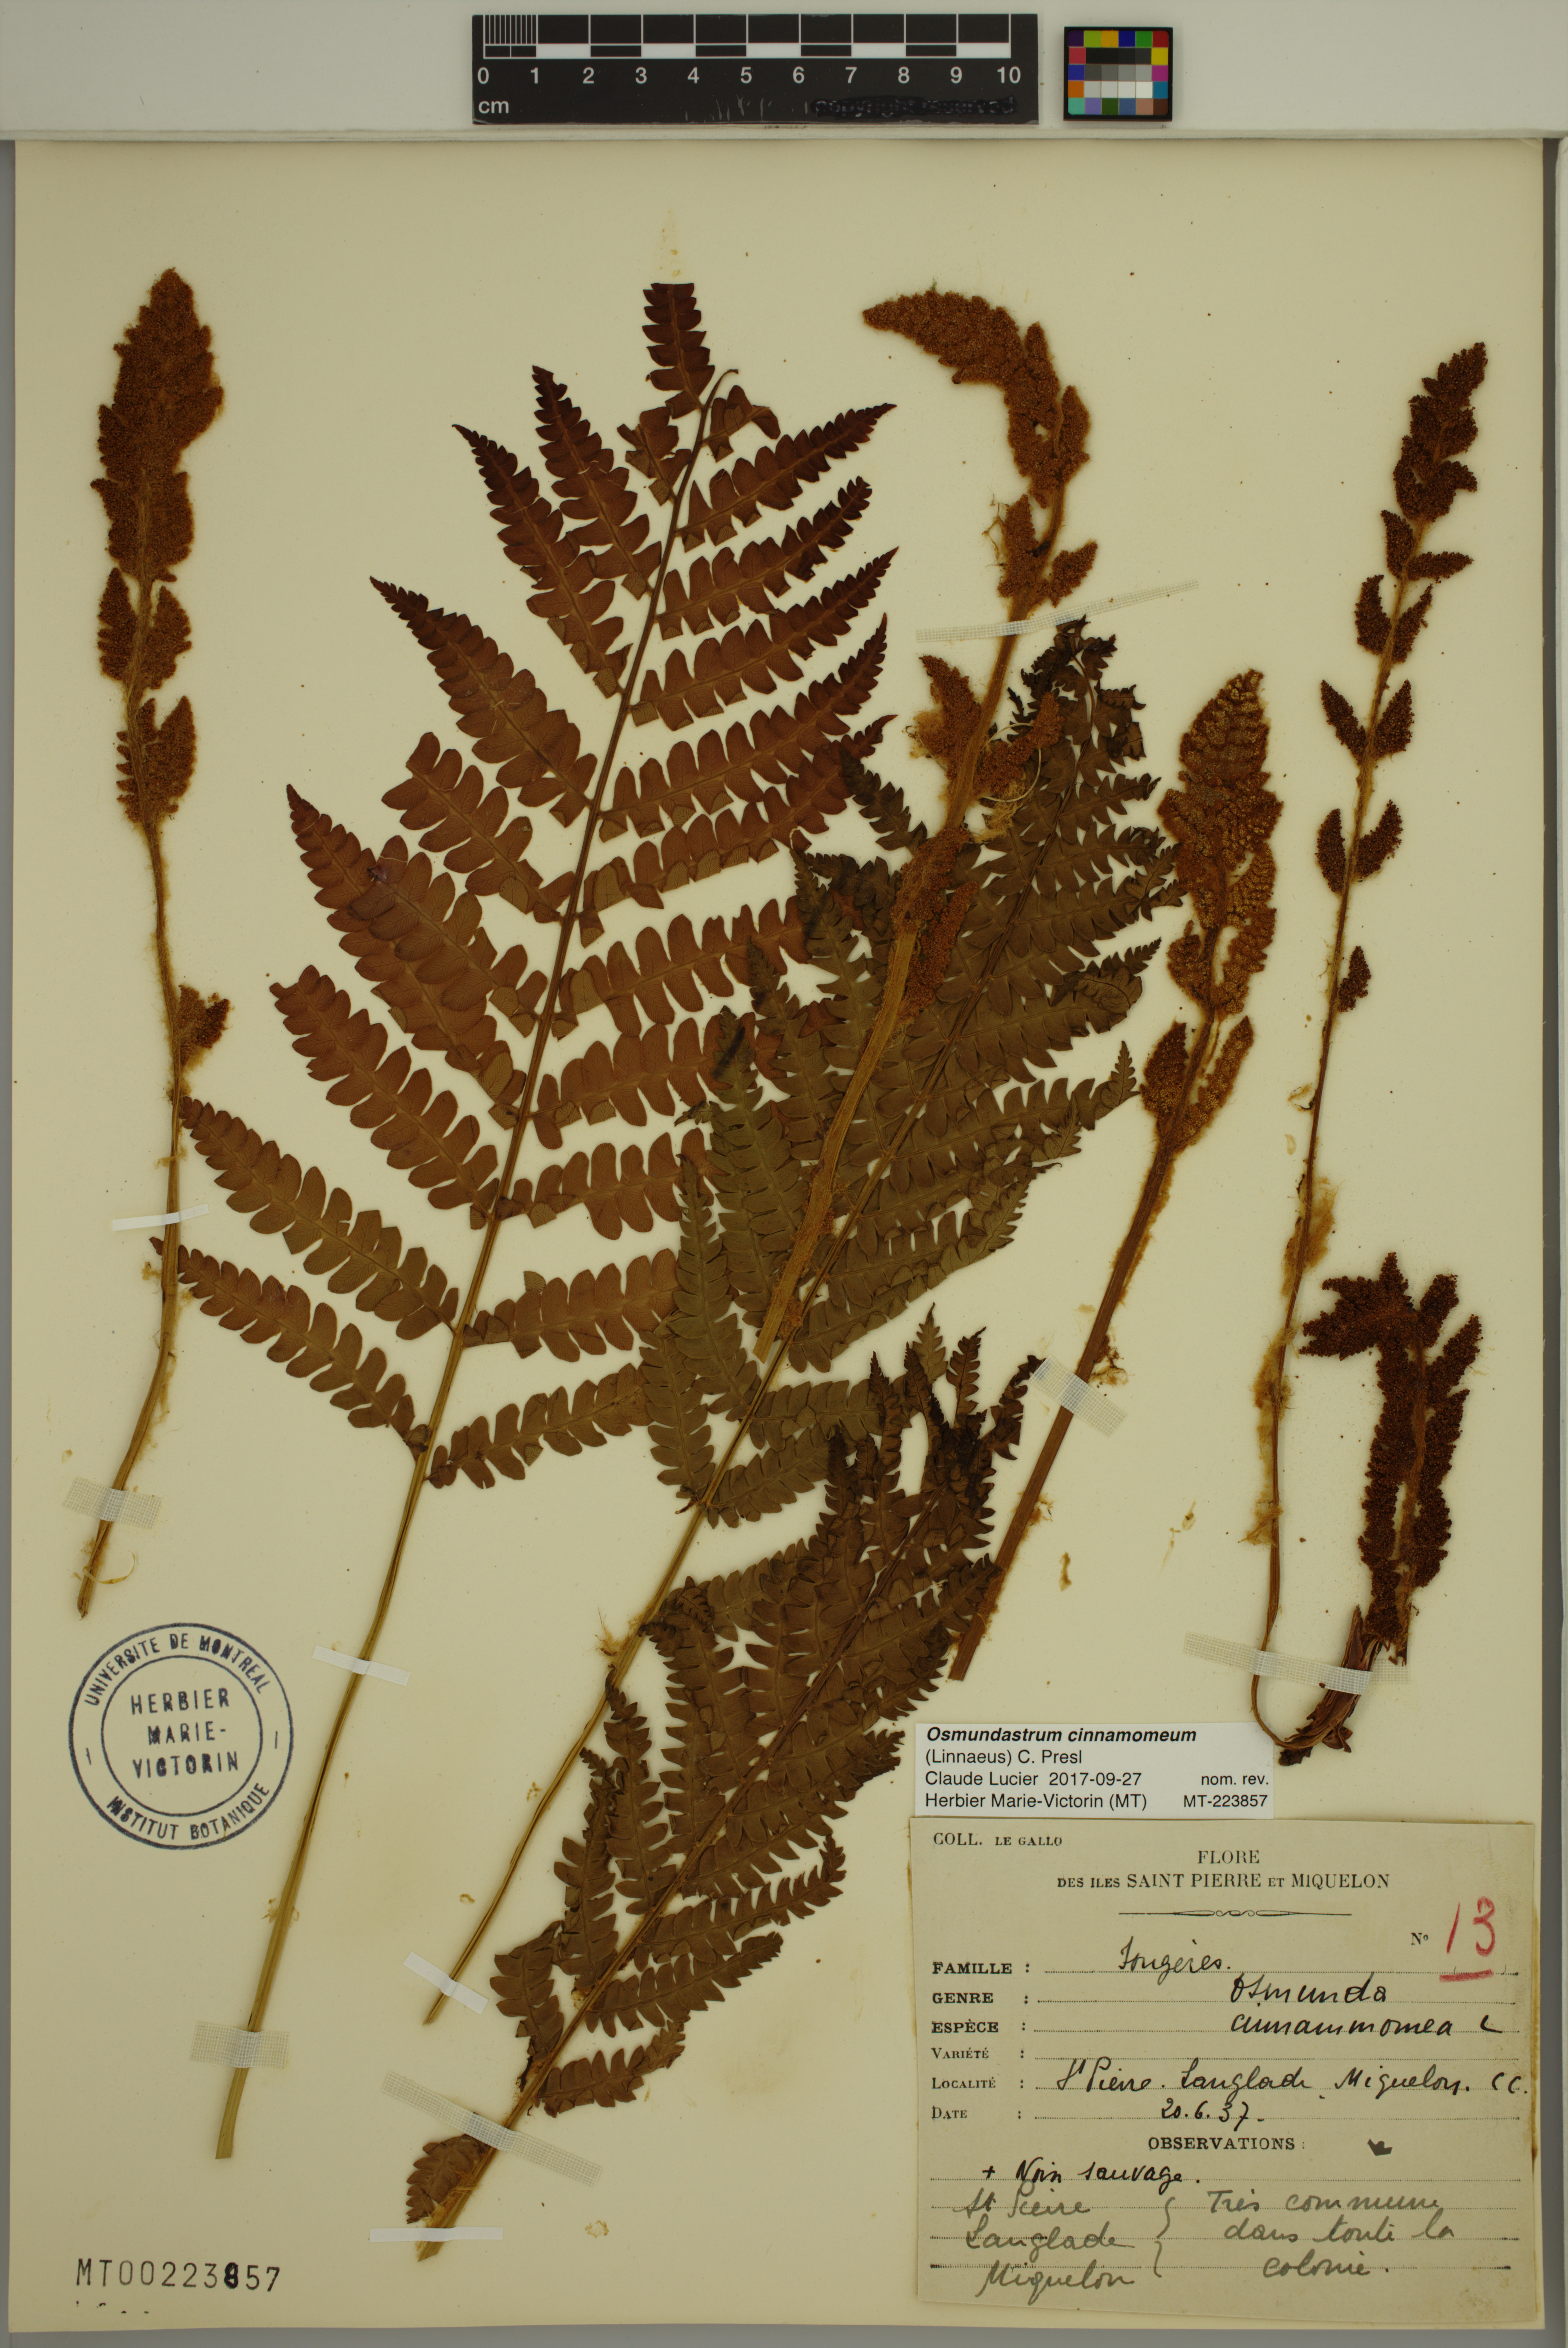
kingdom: Plantae
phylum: Tracheophyta
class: Polypodiopsida
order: Osmundales
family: Osmundaceae
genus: Osmundastrum
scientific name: Osmundastrum cinnamomeum
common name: Cinnamon fern
